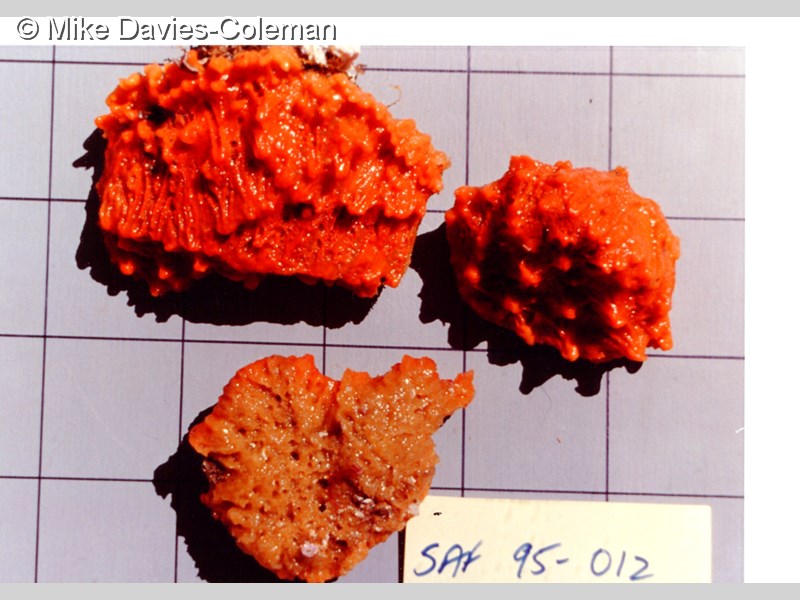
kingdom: Animalia
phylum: Porifera
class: Demospongiae
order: Poecilosclerida
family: Tedaniidae
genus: Tedania
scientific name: Tedania stylonychaeta
